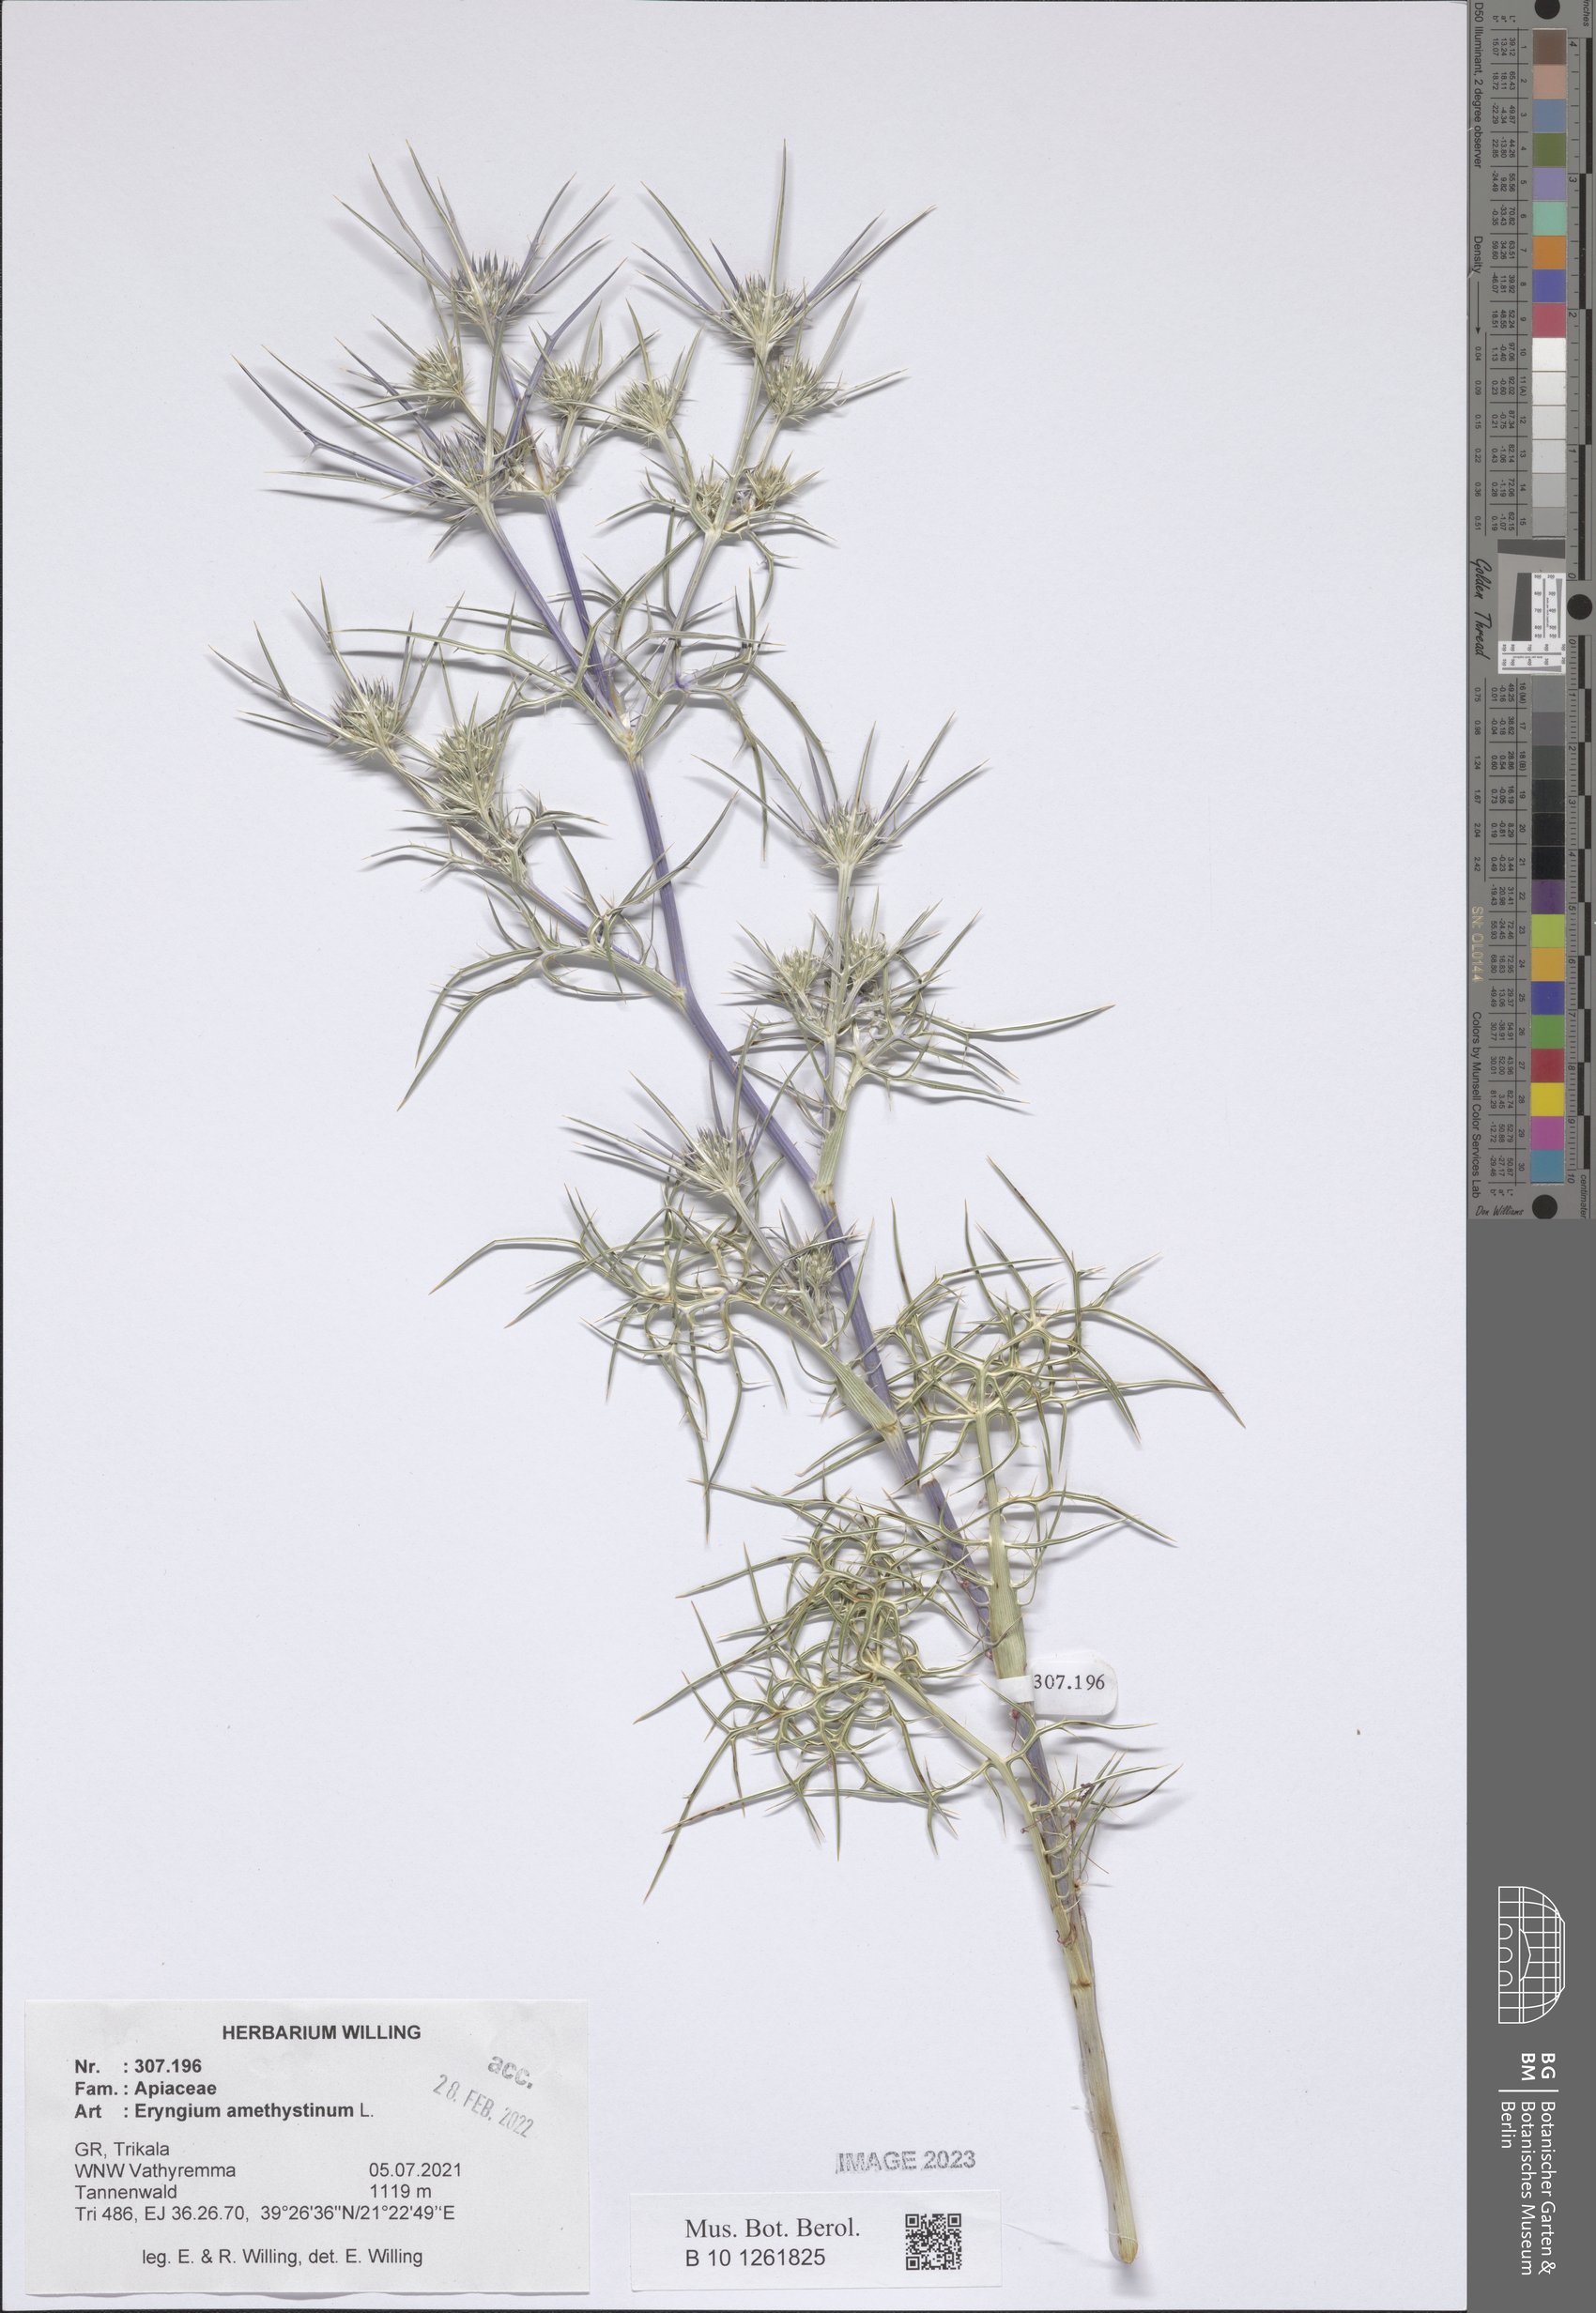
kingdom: Plantae
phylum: Tracheophyta
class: Magnoliopsida
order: Apiales
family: Apiaceae
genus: Eryngium
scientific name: Eryngium amethystinum
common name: Amethyst eryngo
